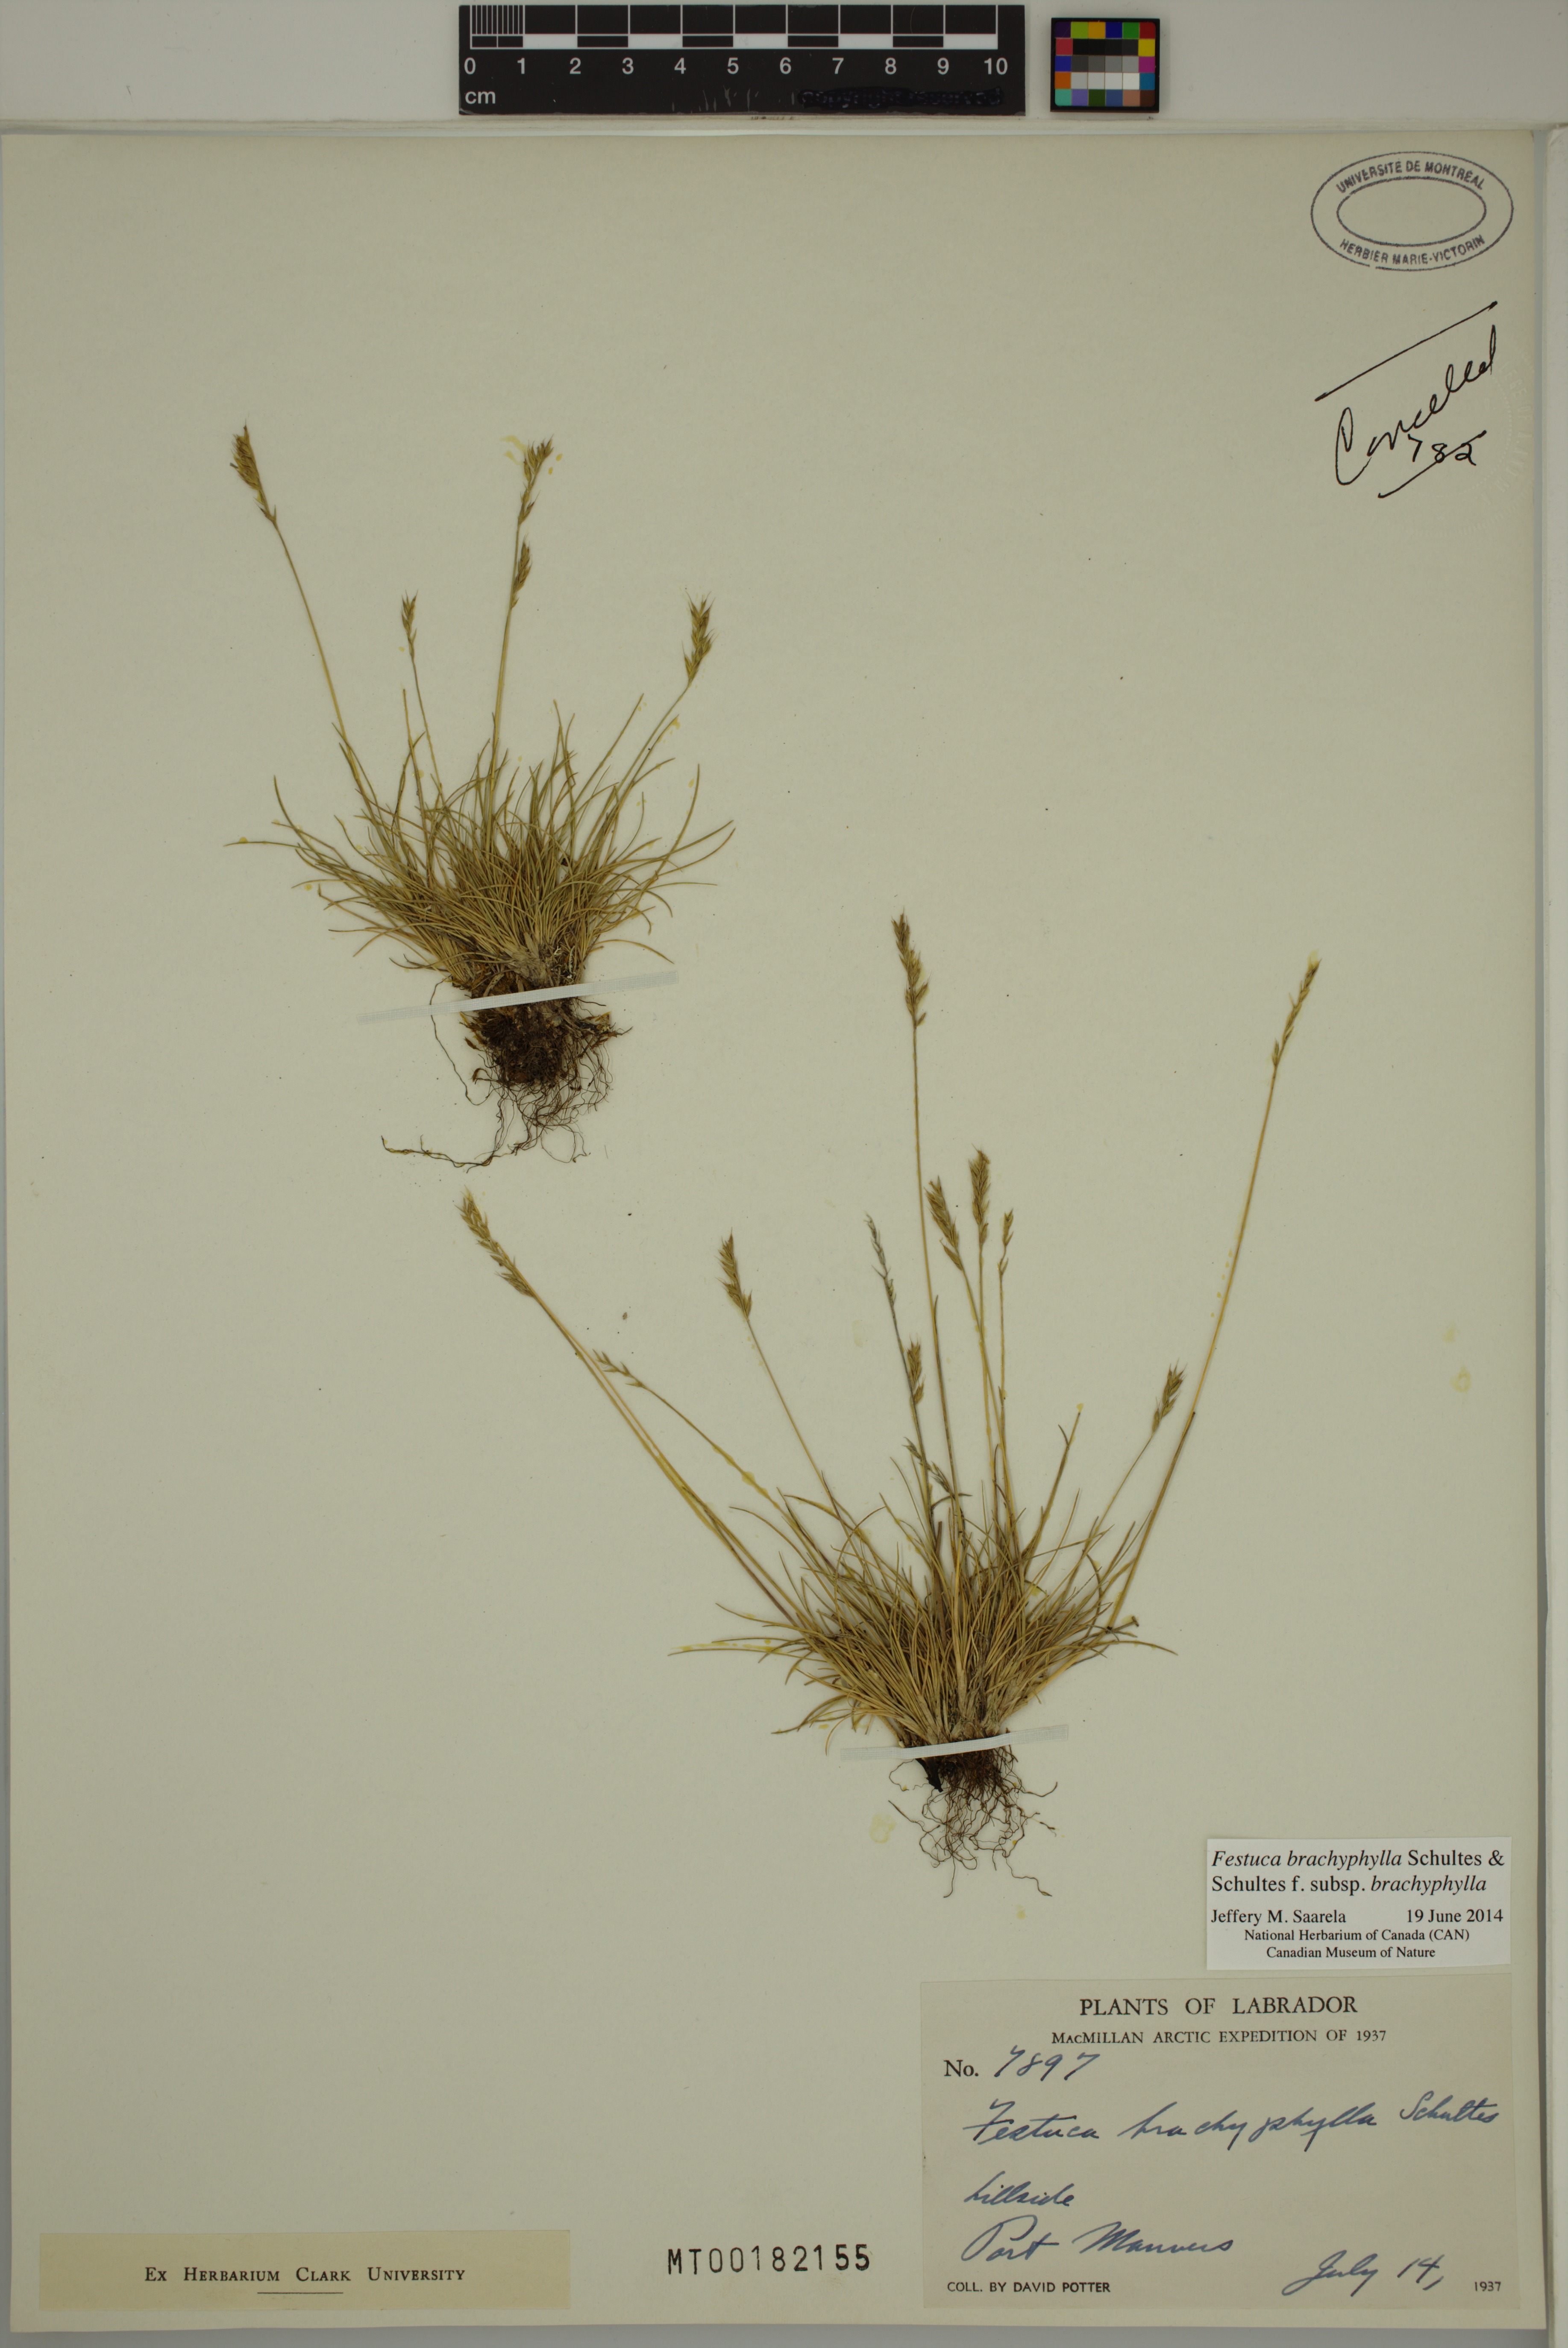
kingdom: Plantae
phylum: Tracheophyta
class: Liliopsida
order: Poales
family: Poaceae
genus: Festuca
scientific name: Festuca brachyphylla
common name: Alpine fescue
